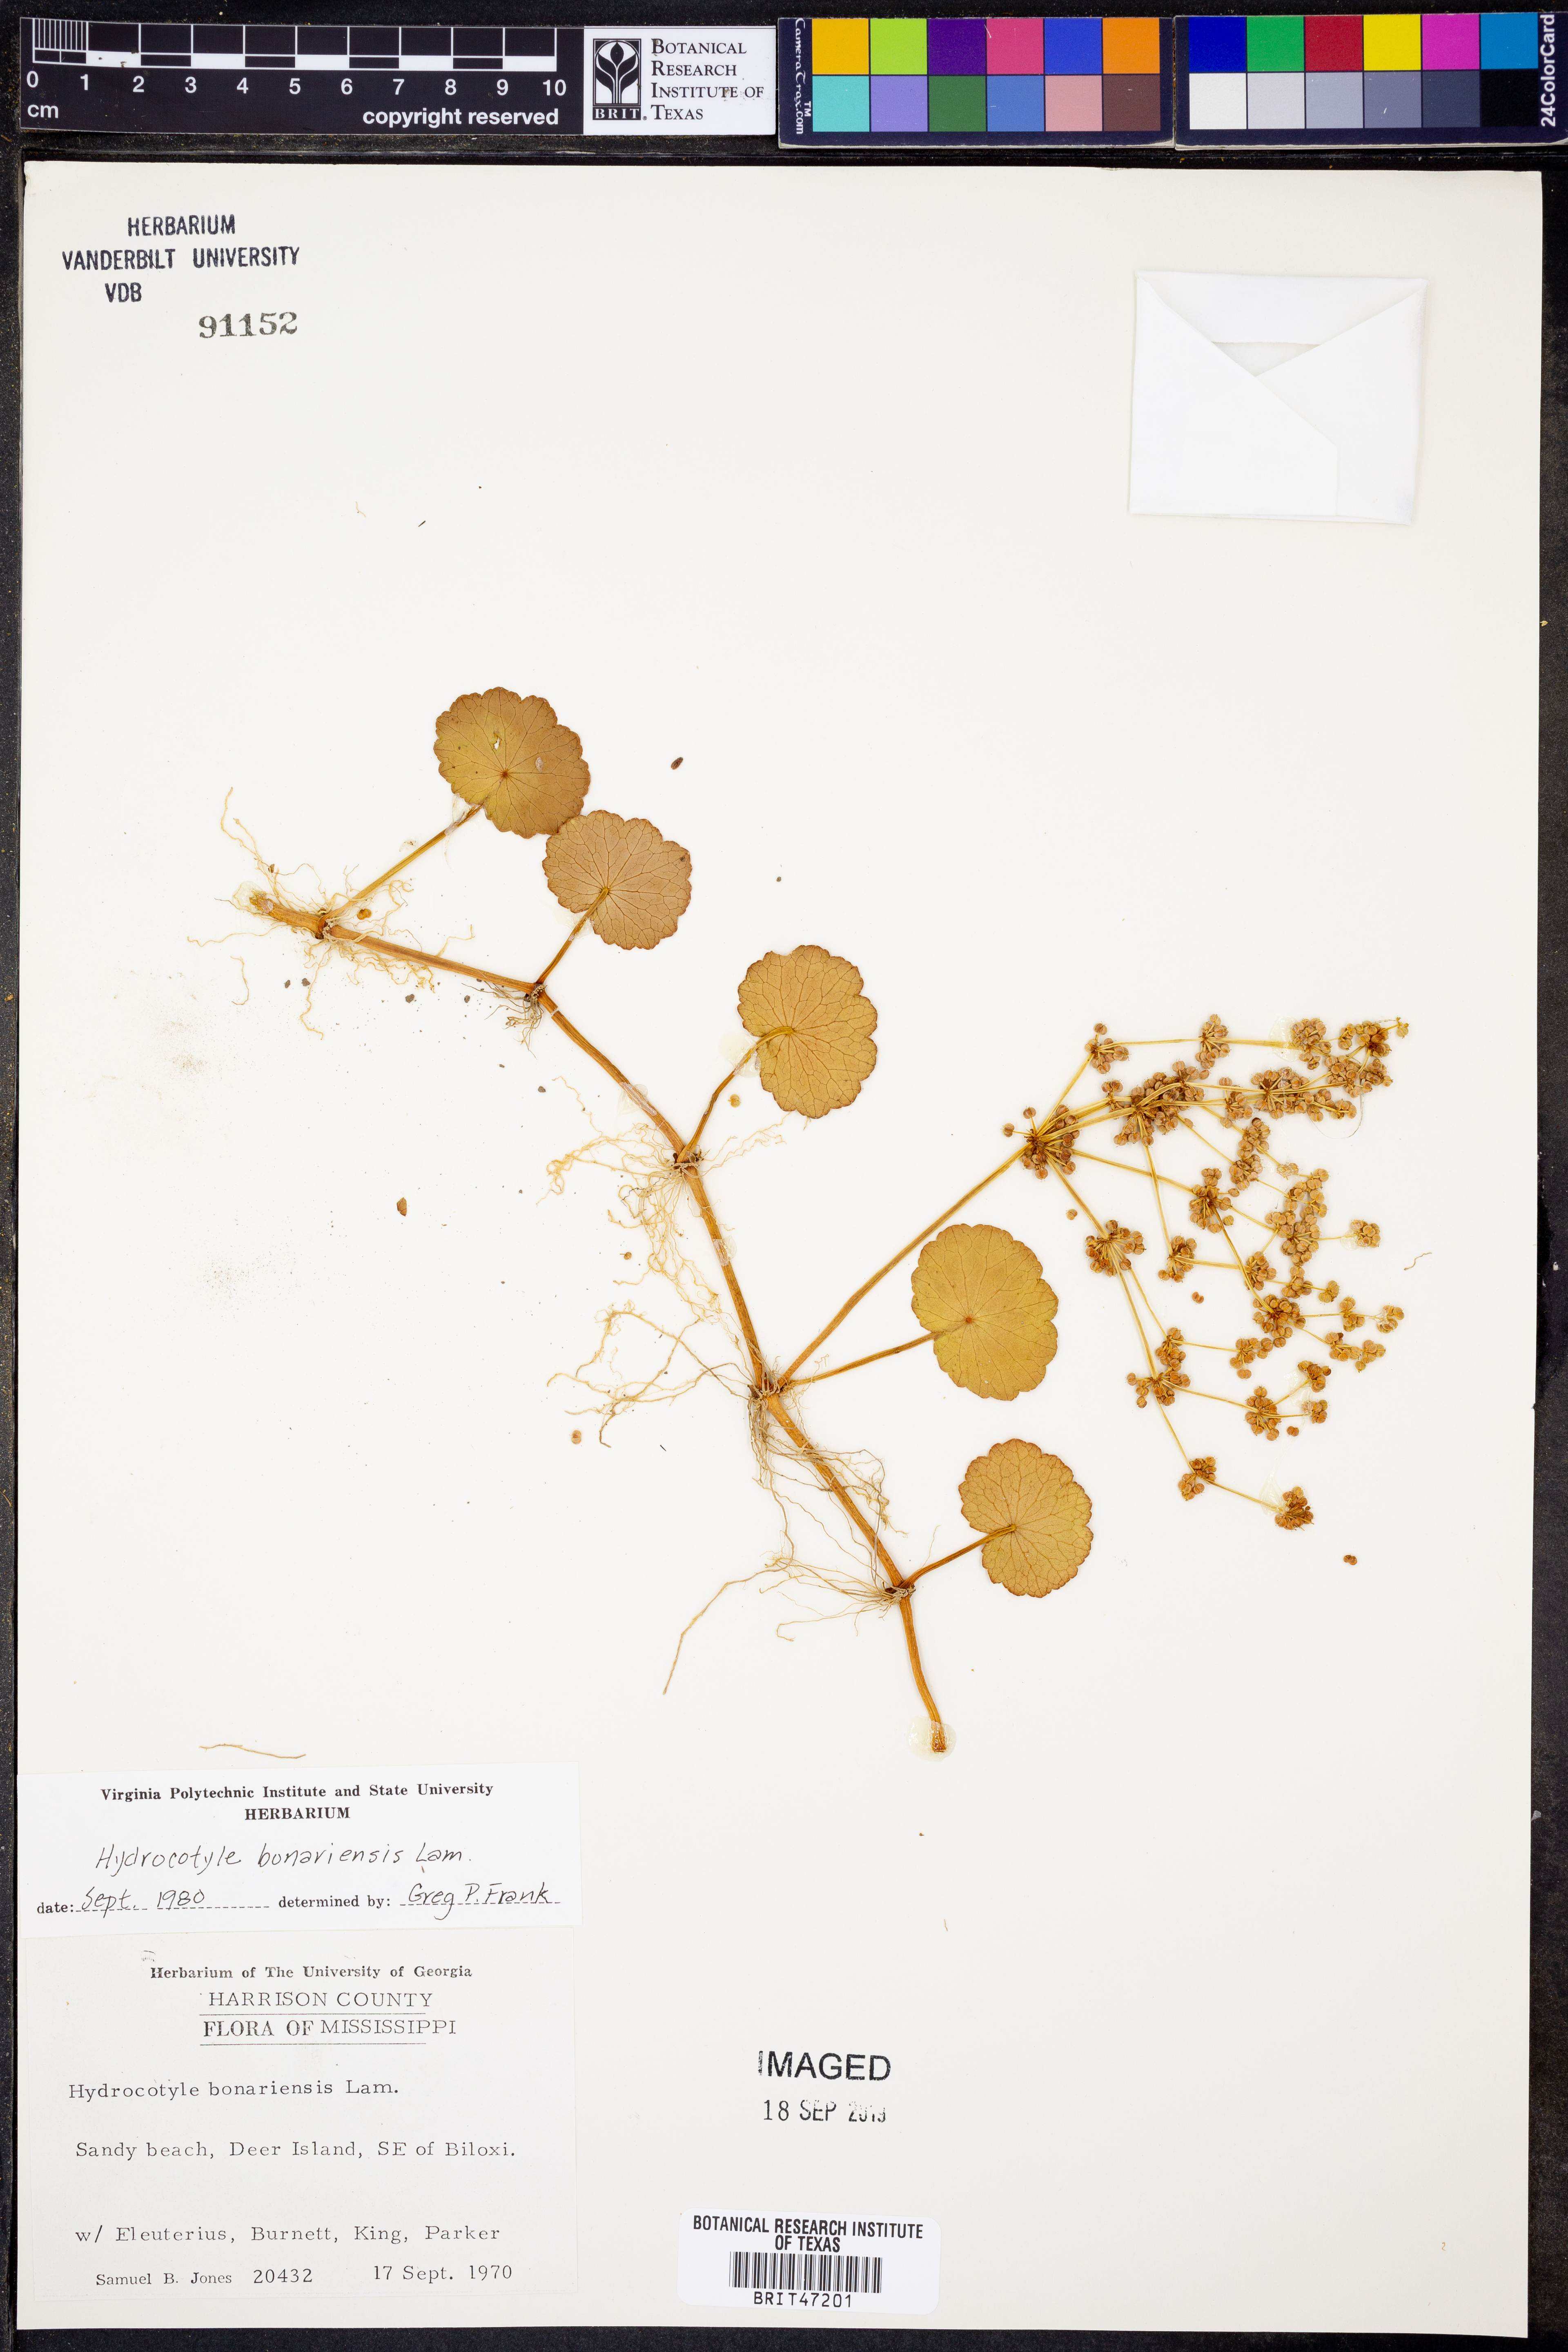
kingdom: Plantae
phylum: Tracheophyta
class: Magnoliopsida
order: Apiales
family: Araliaceae
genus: Hydrocotyle
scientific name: Hydrocotyle bonariensis
